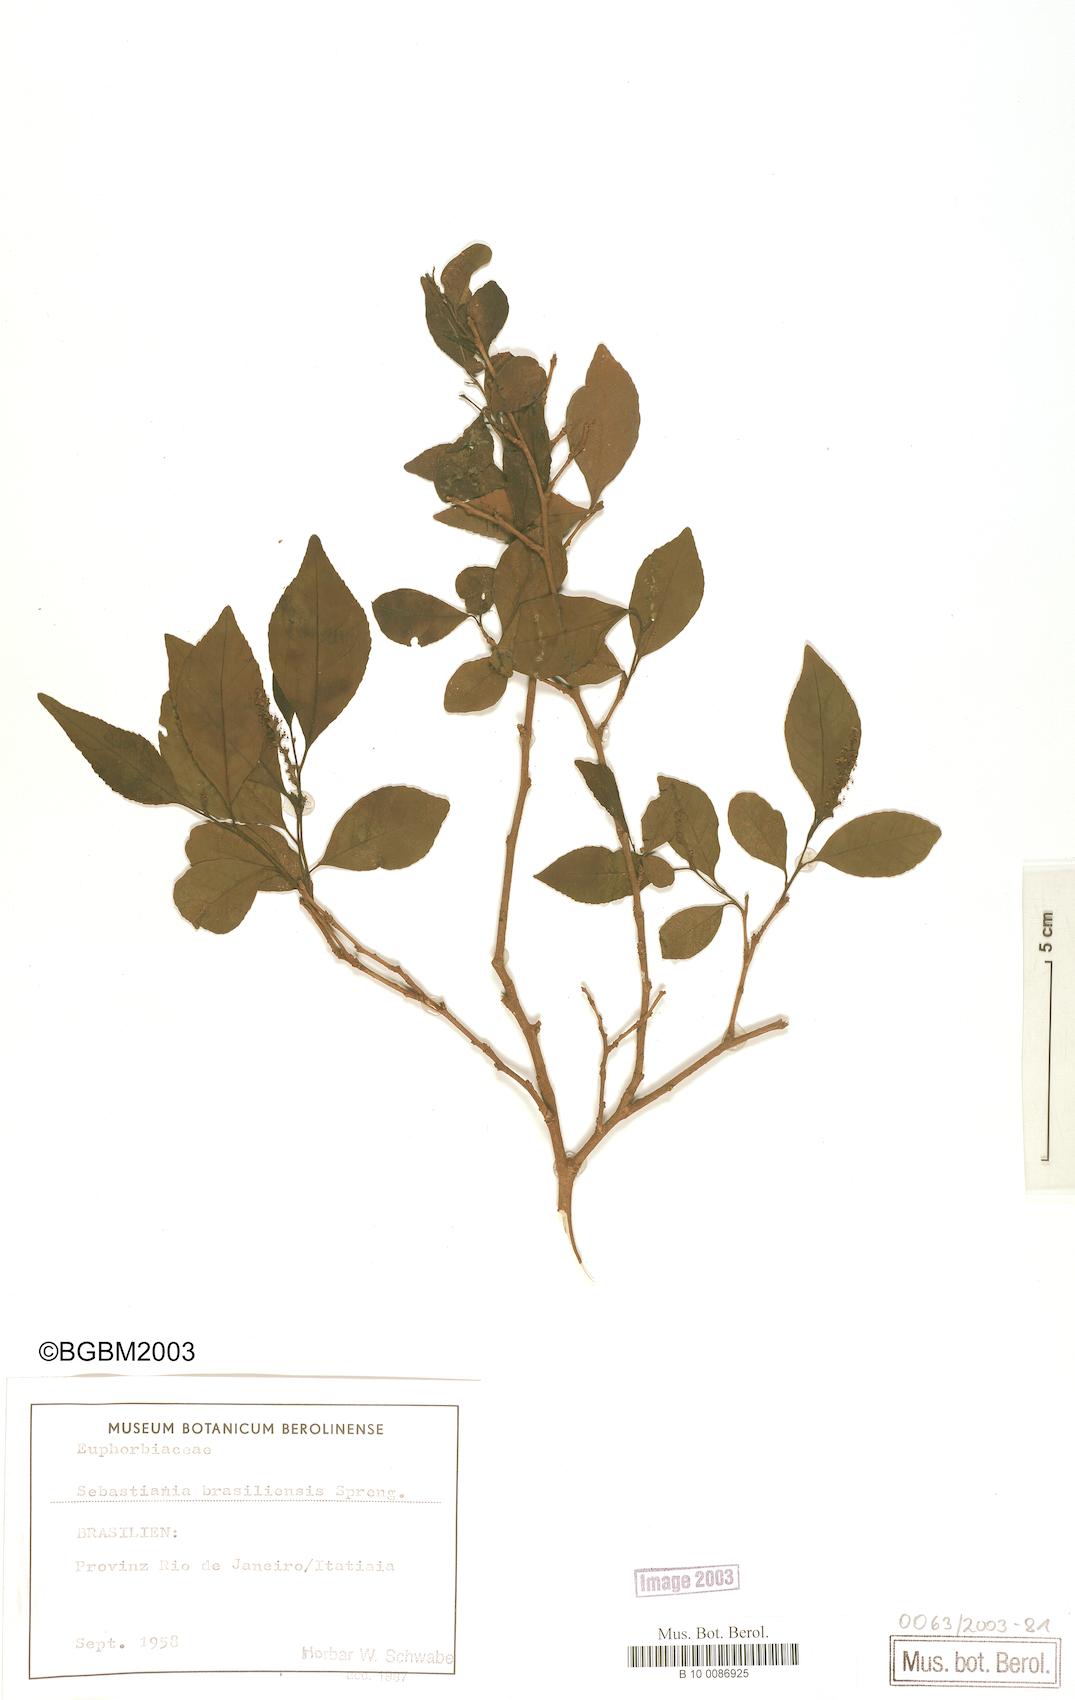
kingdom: Plantae
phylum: Tracheophyta
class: Magnoliopsida
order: Malpighiales
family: Euphorbiaceae
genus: Sebastiania
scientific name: Sebastiania brasiliensis
